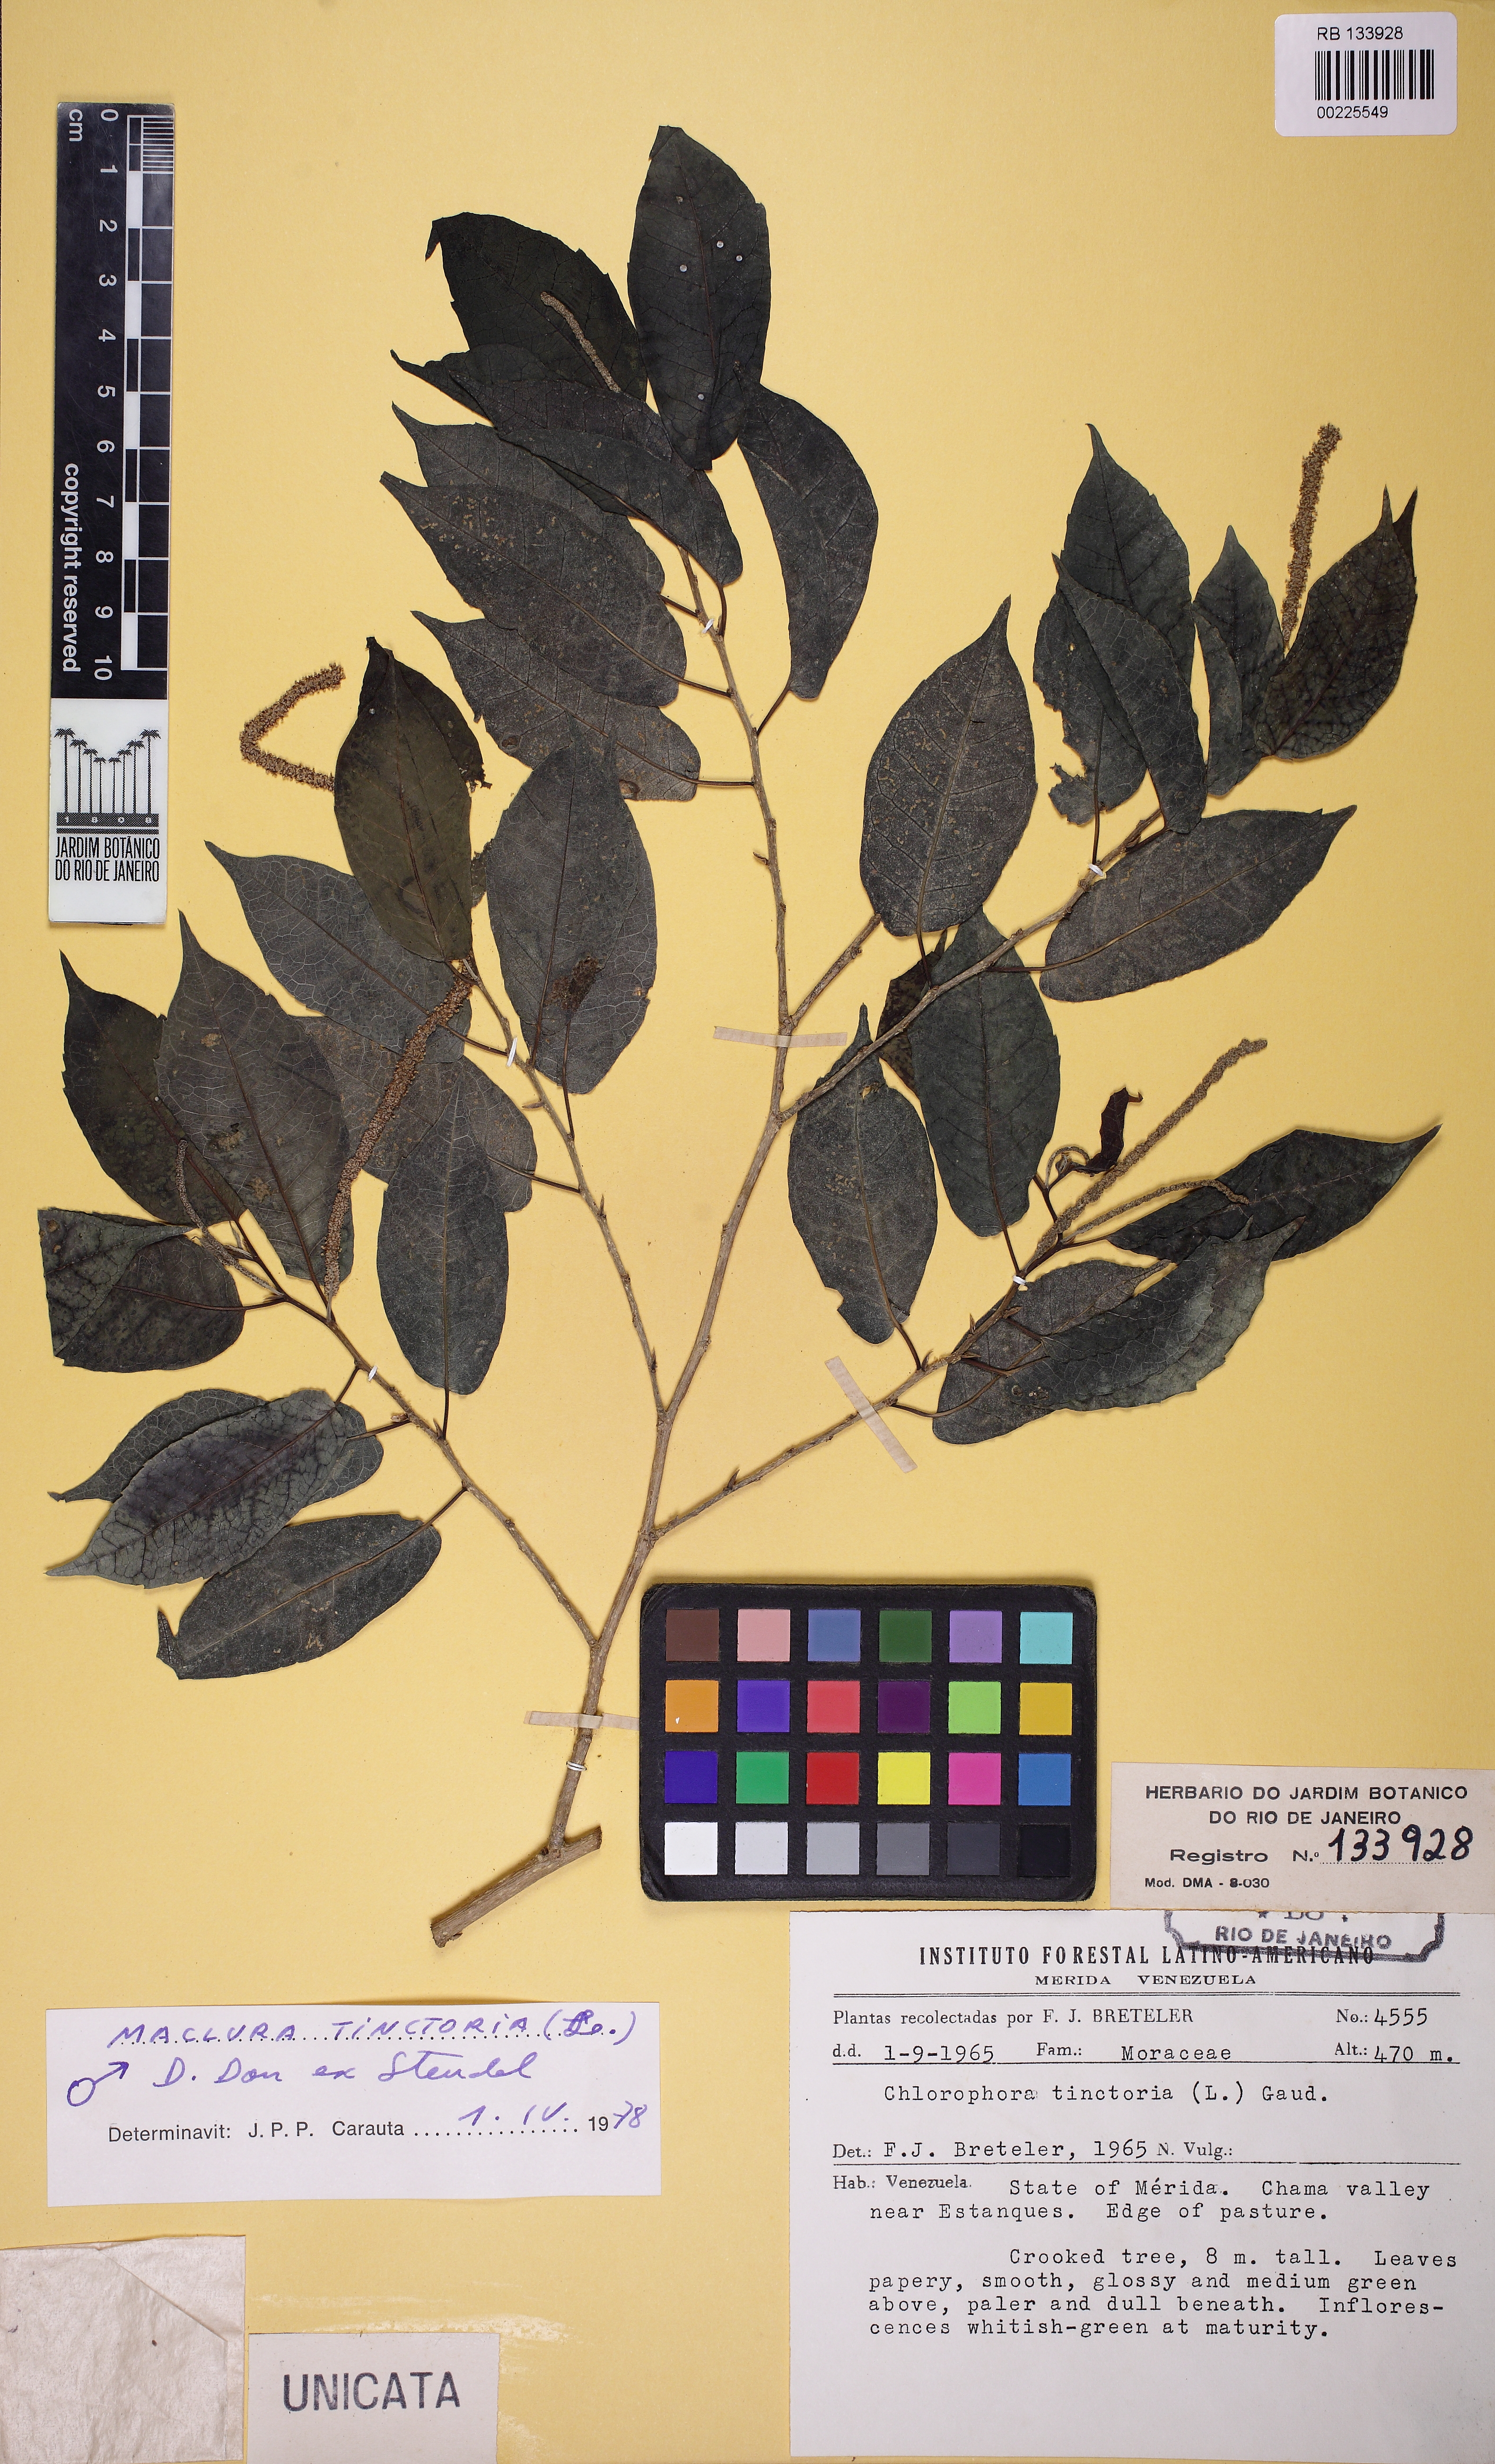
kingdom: Plantae
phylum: Tracheophyta
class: Magnoliopsida
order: Rosales
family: Moraceae
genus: Maclura
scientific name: Maclura tinctoria
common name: Old fustic
